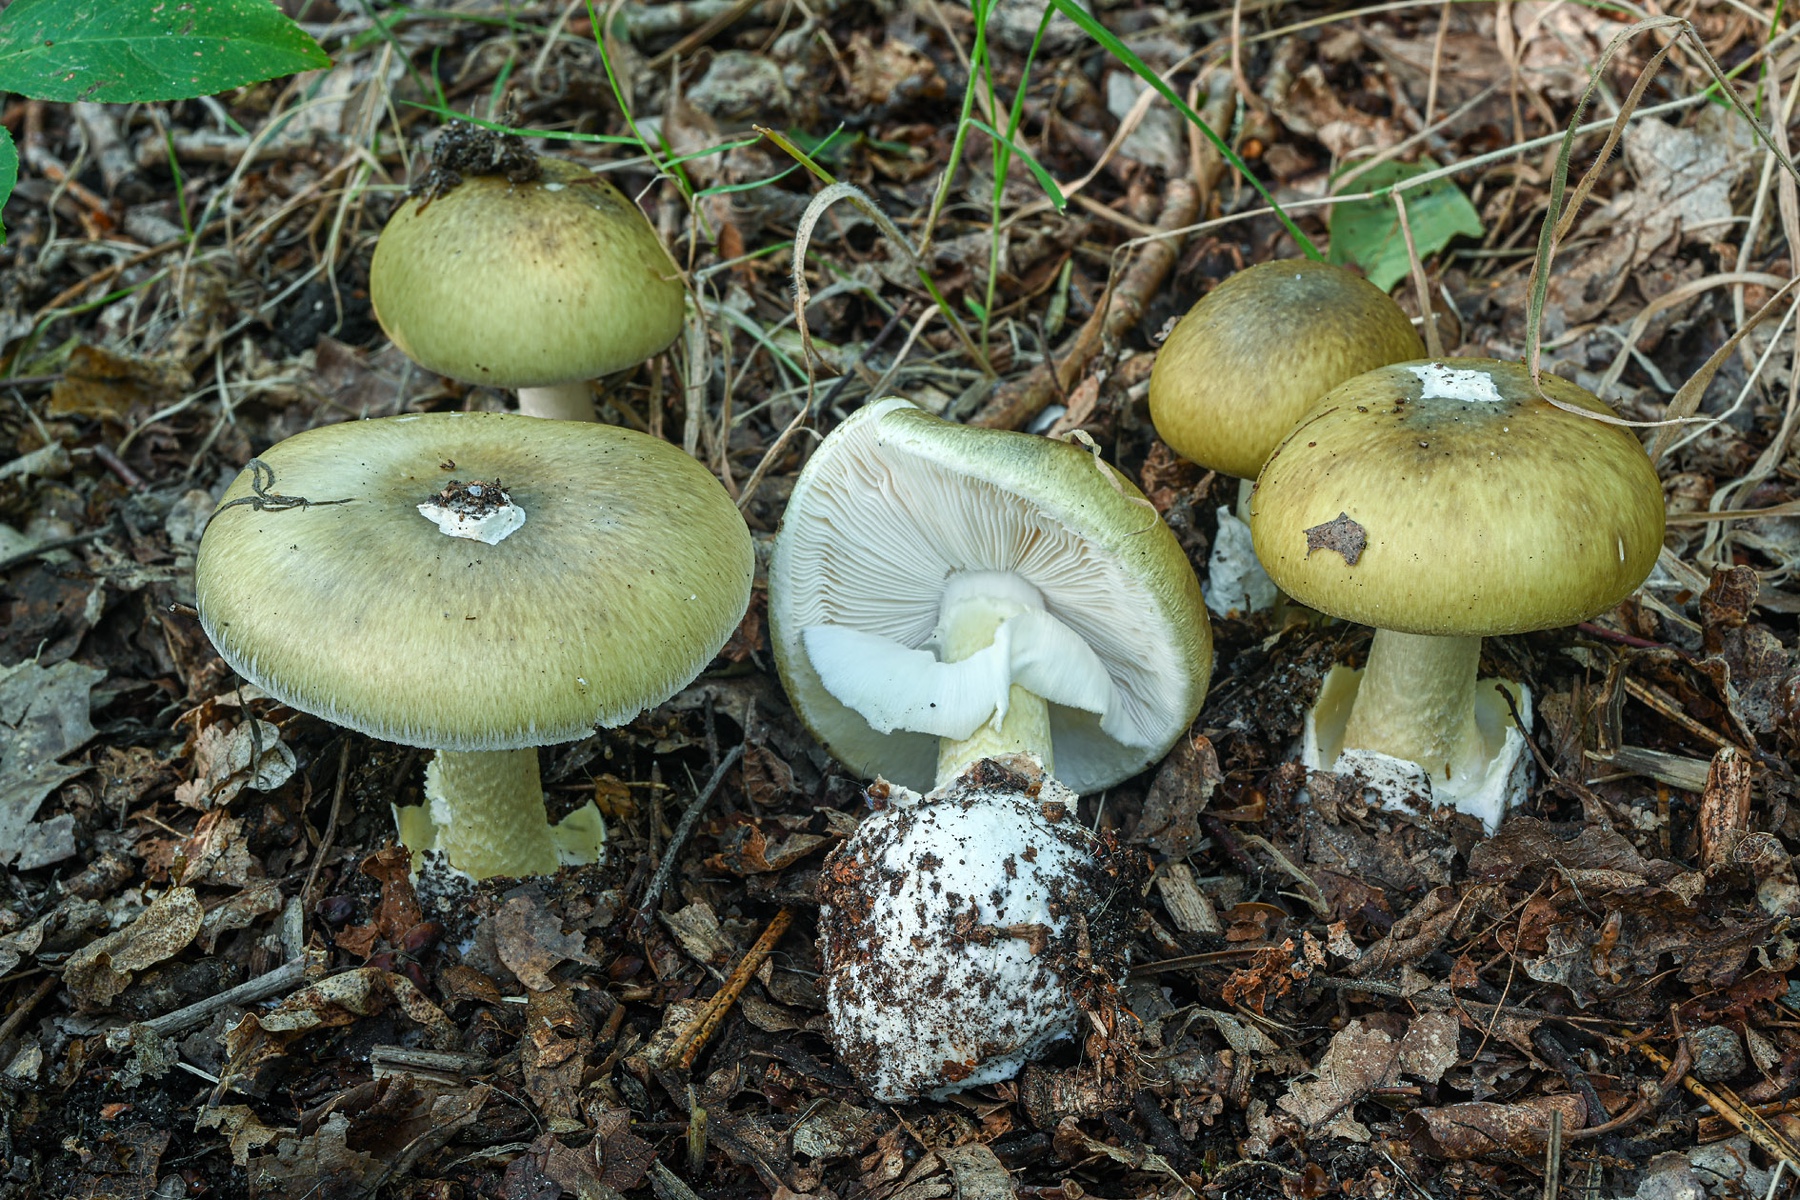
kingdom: Fungi
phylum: Basidiomycota
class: Agaricomycetes
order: Agaricales
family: Amanitaceae
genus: Amanita
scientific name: Amanita phalloides
